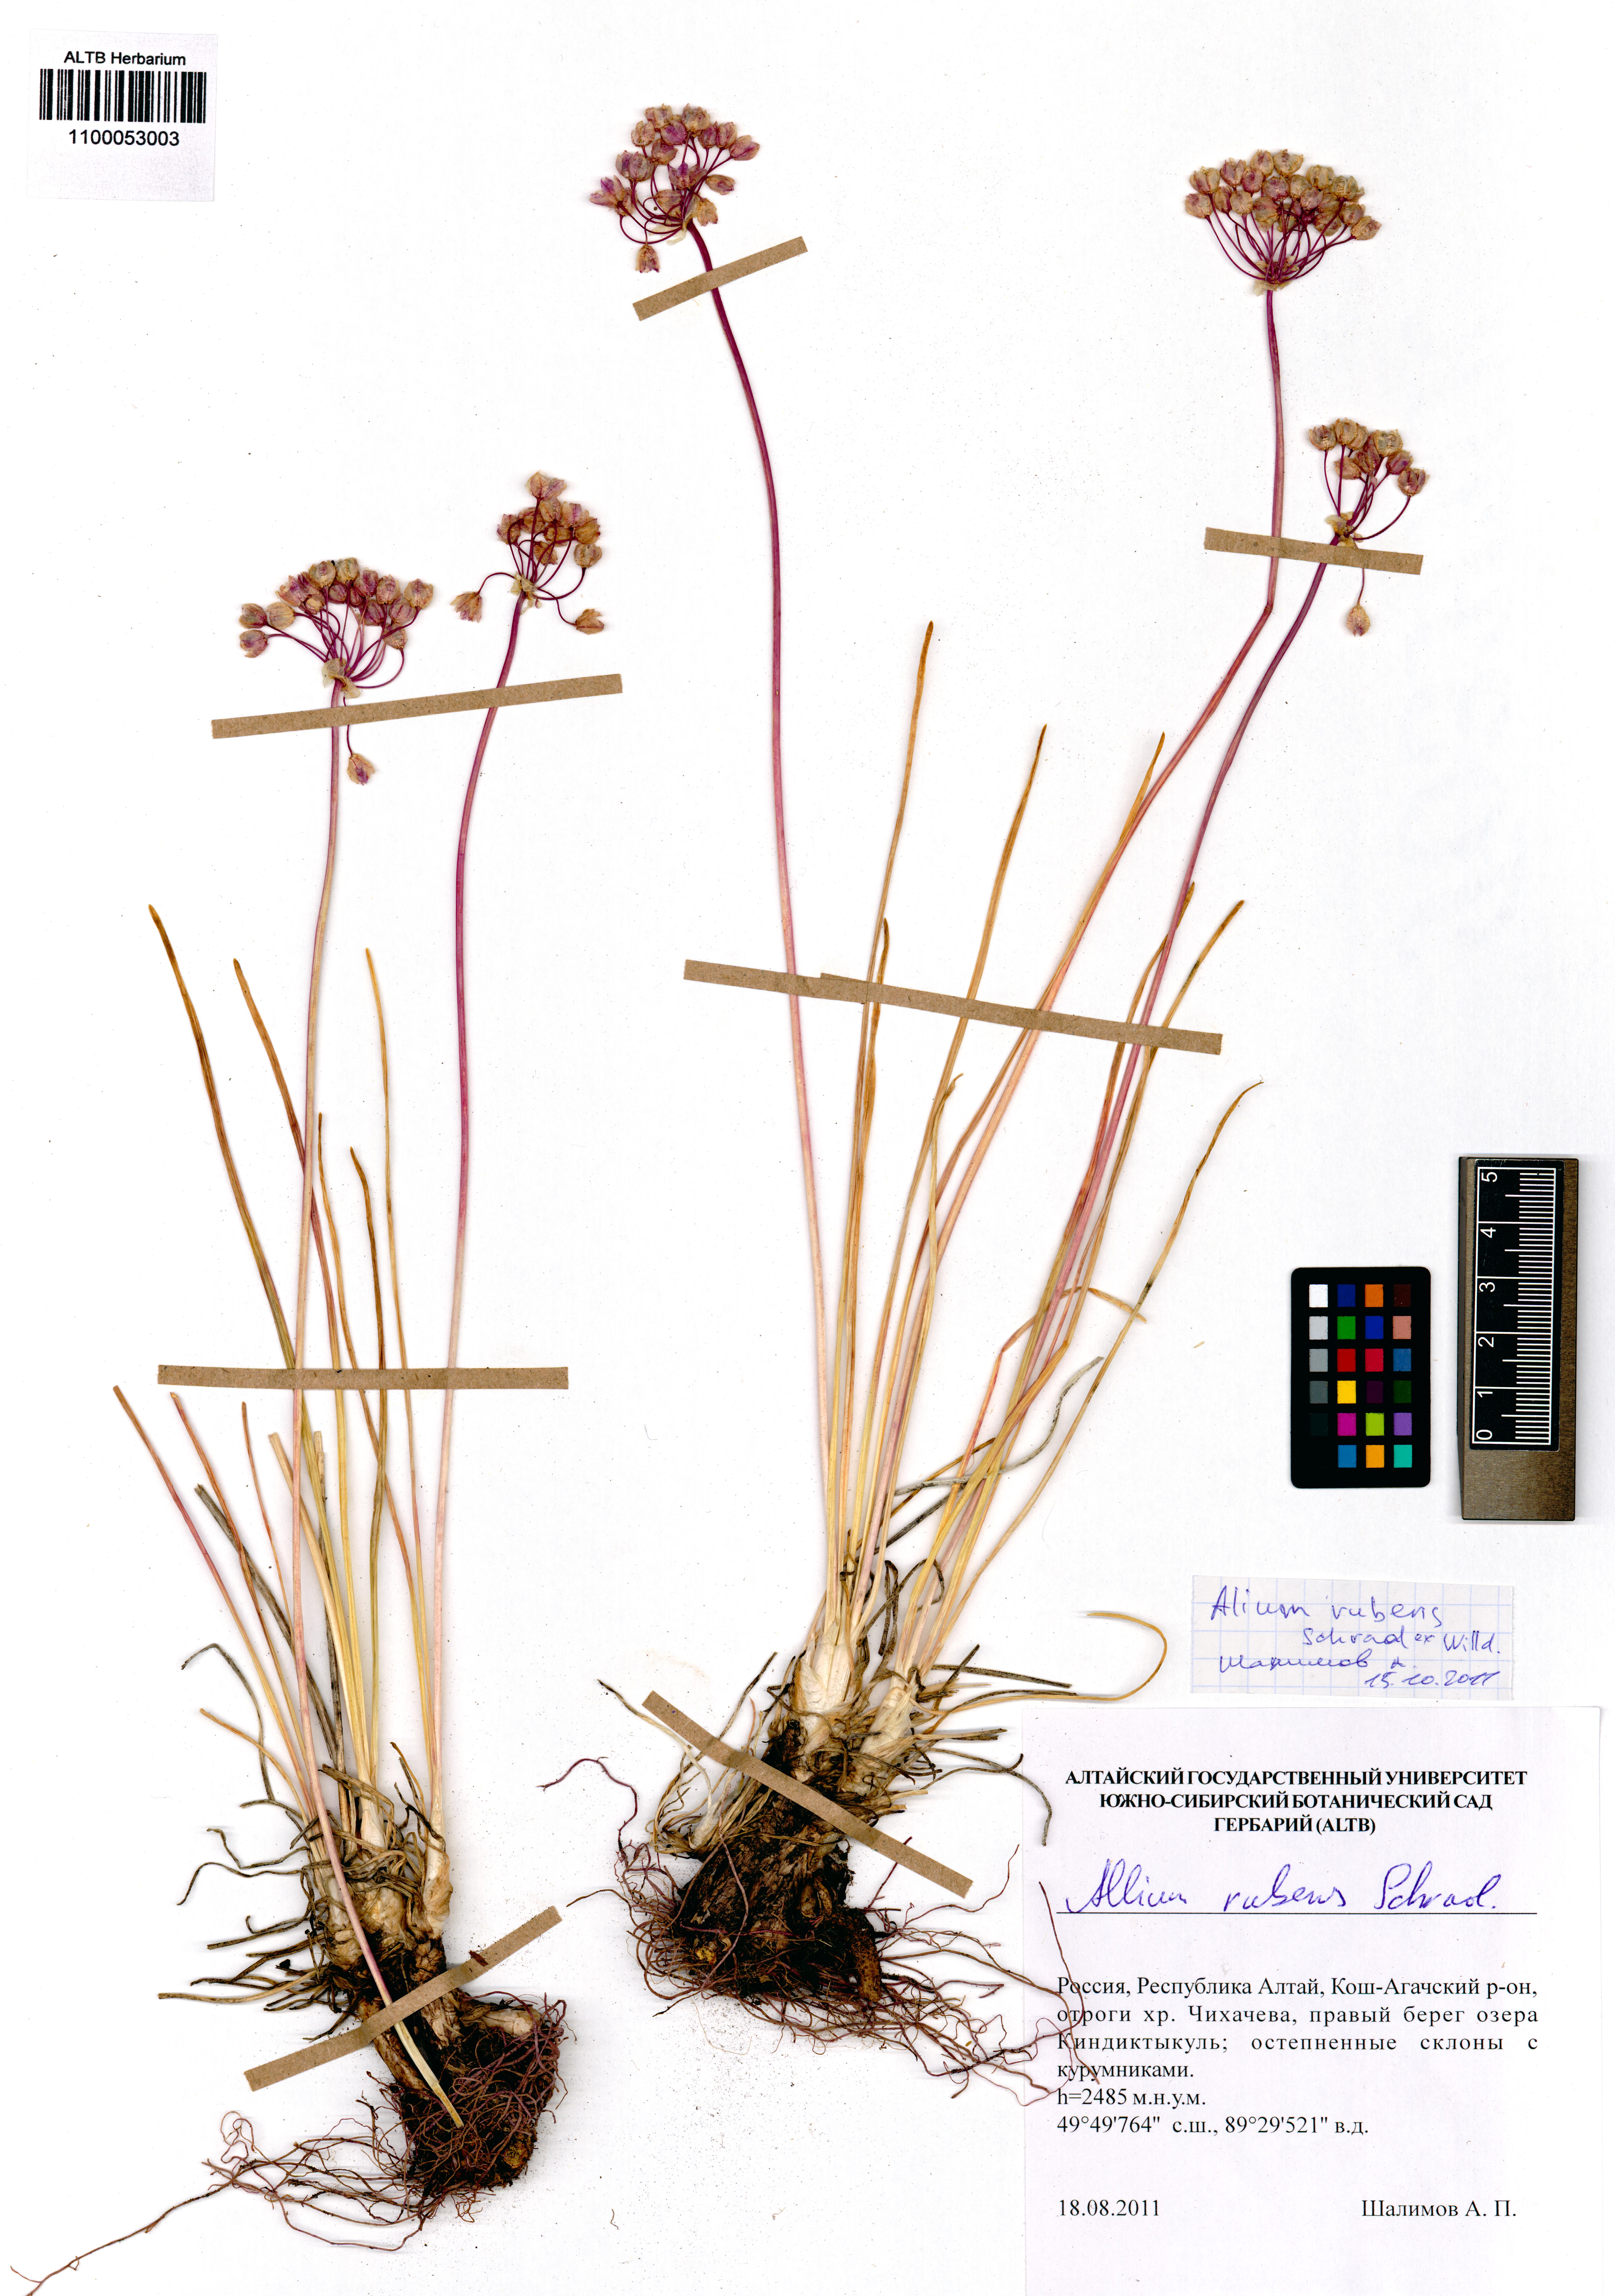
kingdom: Plantae
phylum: Tracheophyta
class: Liliopsida
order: Asparagales
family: Amaryllidaceae
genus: Allium
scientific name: Allium rubens
